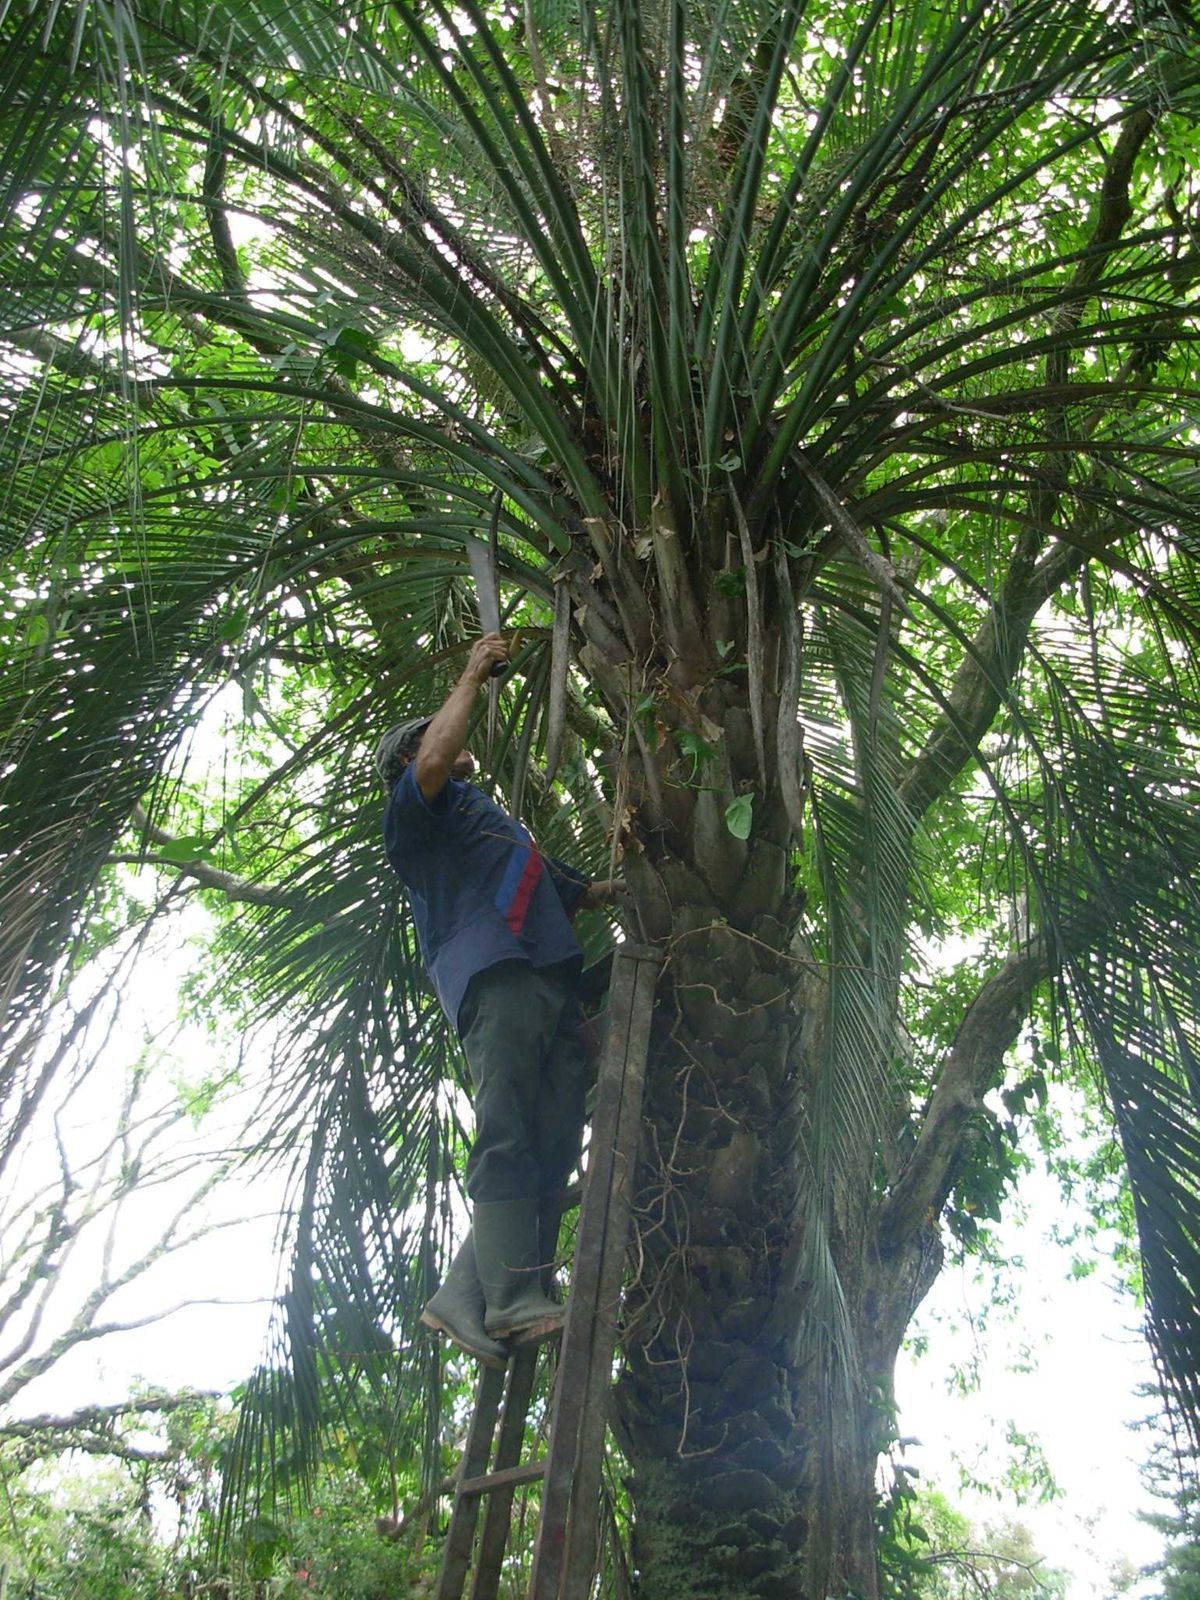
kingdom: Plantae
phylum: Tracheophyta
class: Liliopsida
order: Arecales
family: Arecaceae
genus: Butia
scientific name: Butia odorata
